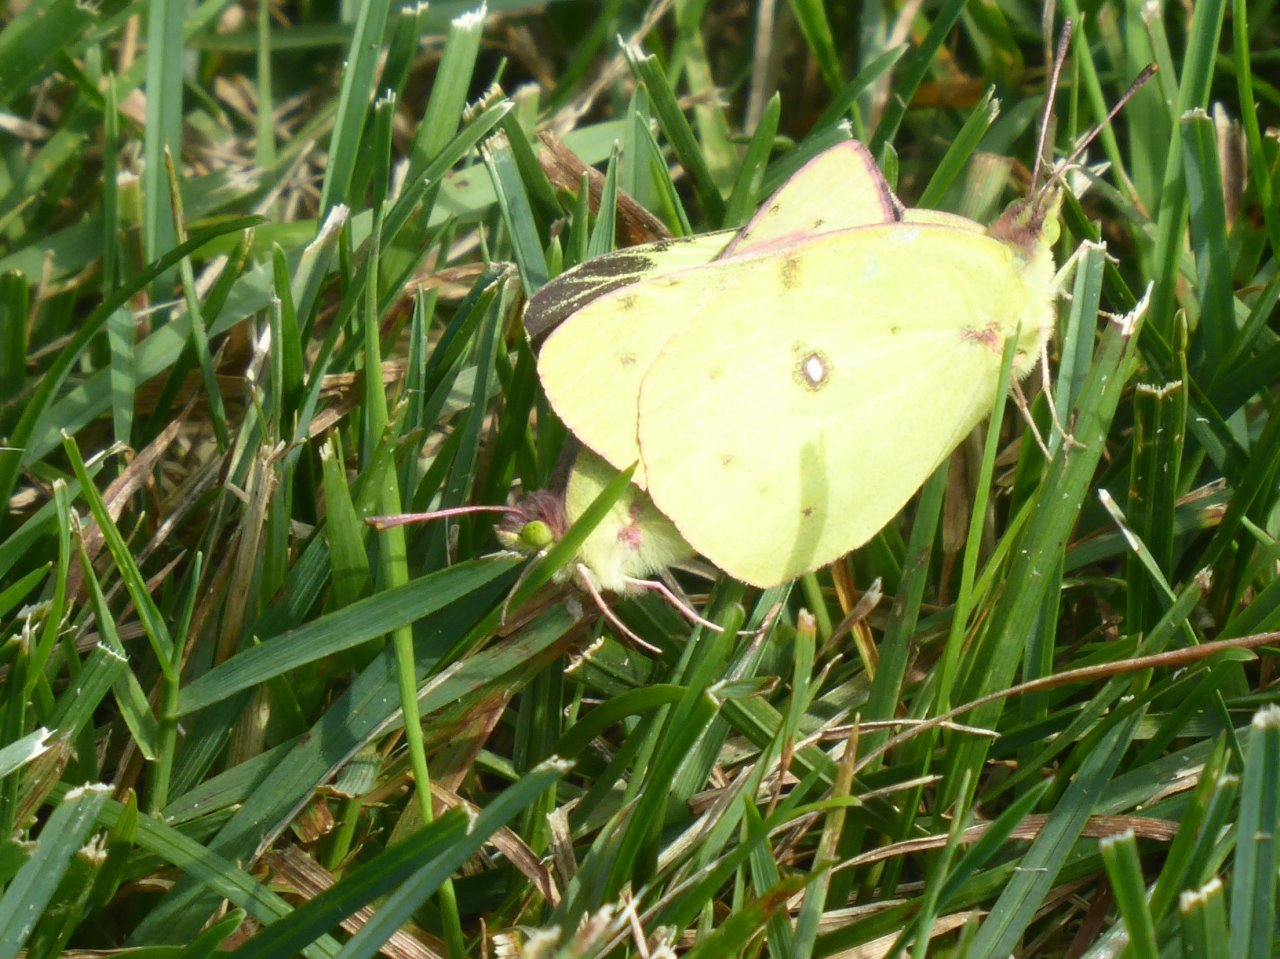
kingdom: Animalia
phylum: Arthropoda
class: Insecta
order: Lepidoptera
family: Pieridae
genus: Colias
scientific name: Colias philodice
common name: Clouded Sulphur
